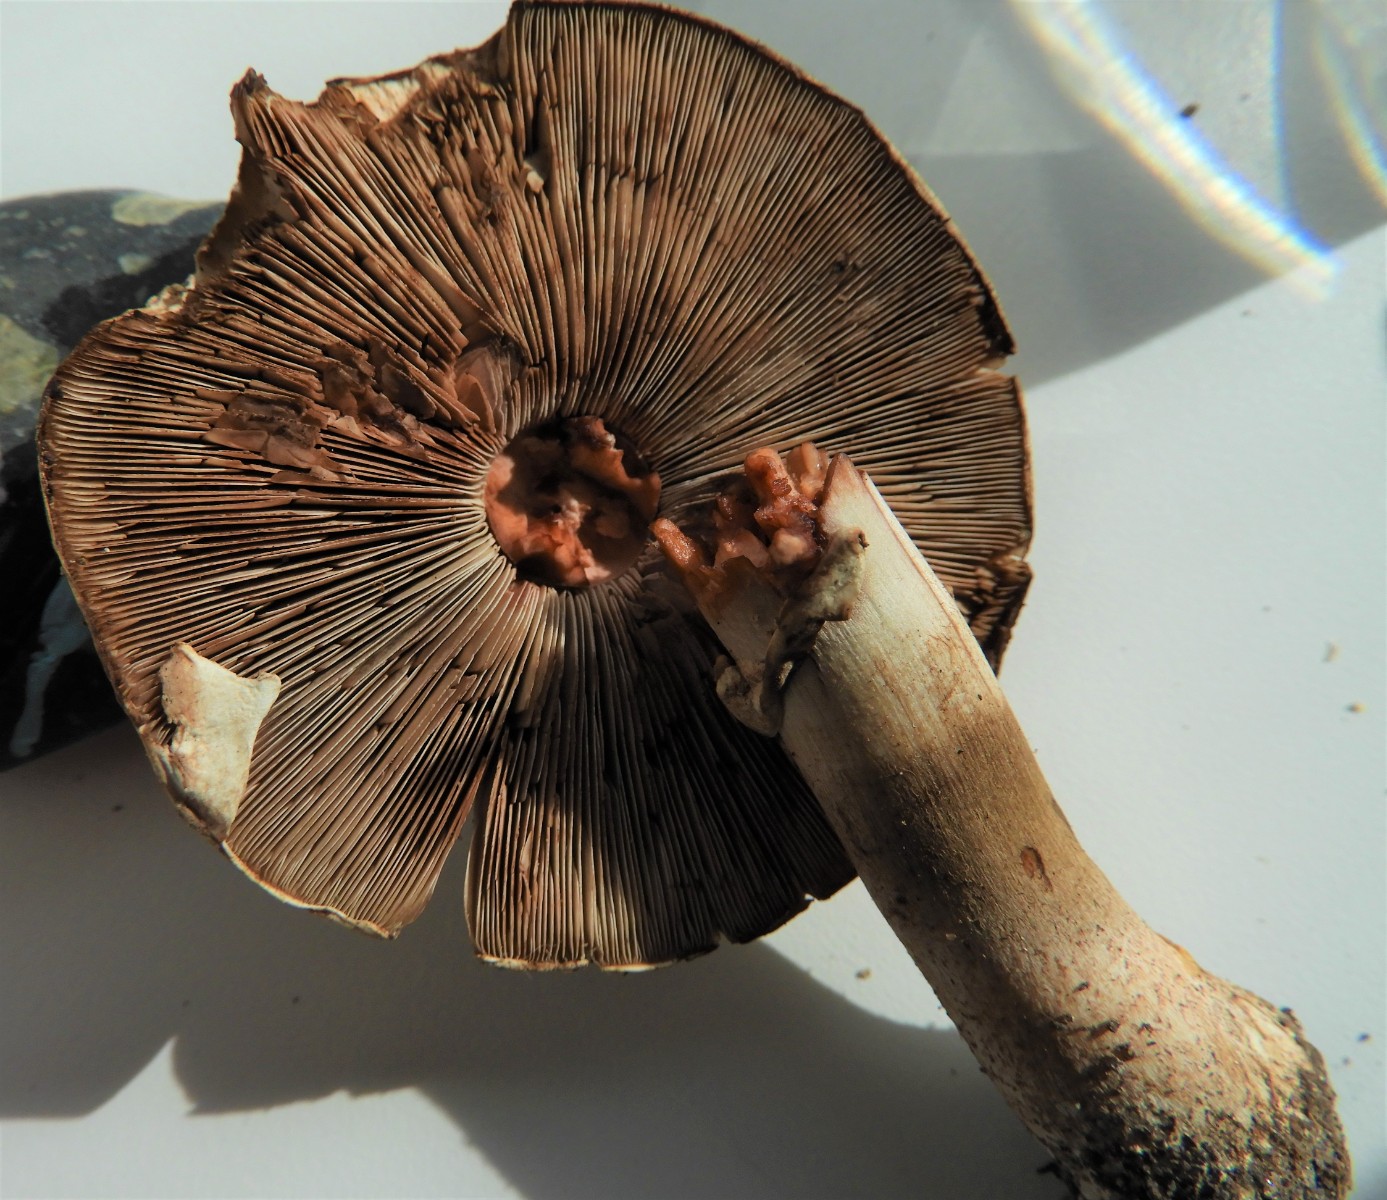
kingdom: Fungi
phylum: Basidiomycota
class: Agaricomycetes
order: Agaricales
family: Agaricaceae
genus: Agaricus
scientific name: Agaricus sylvaticus
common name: lille blod-champignon
